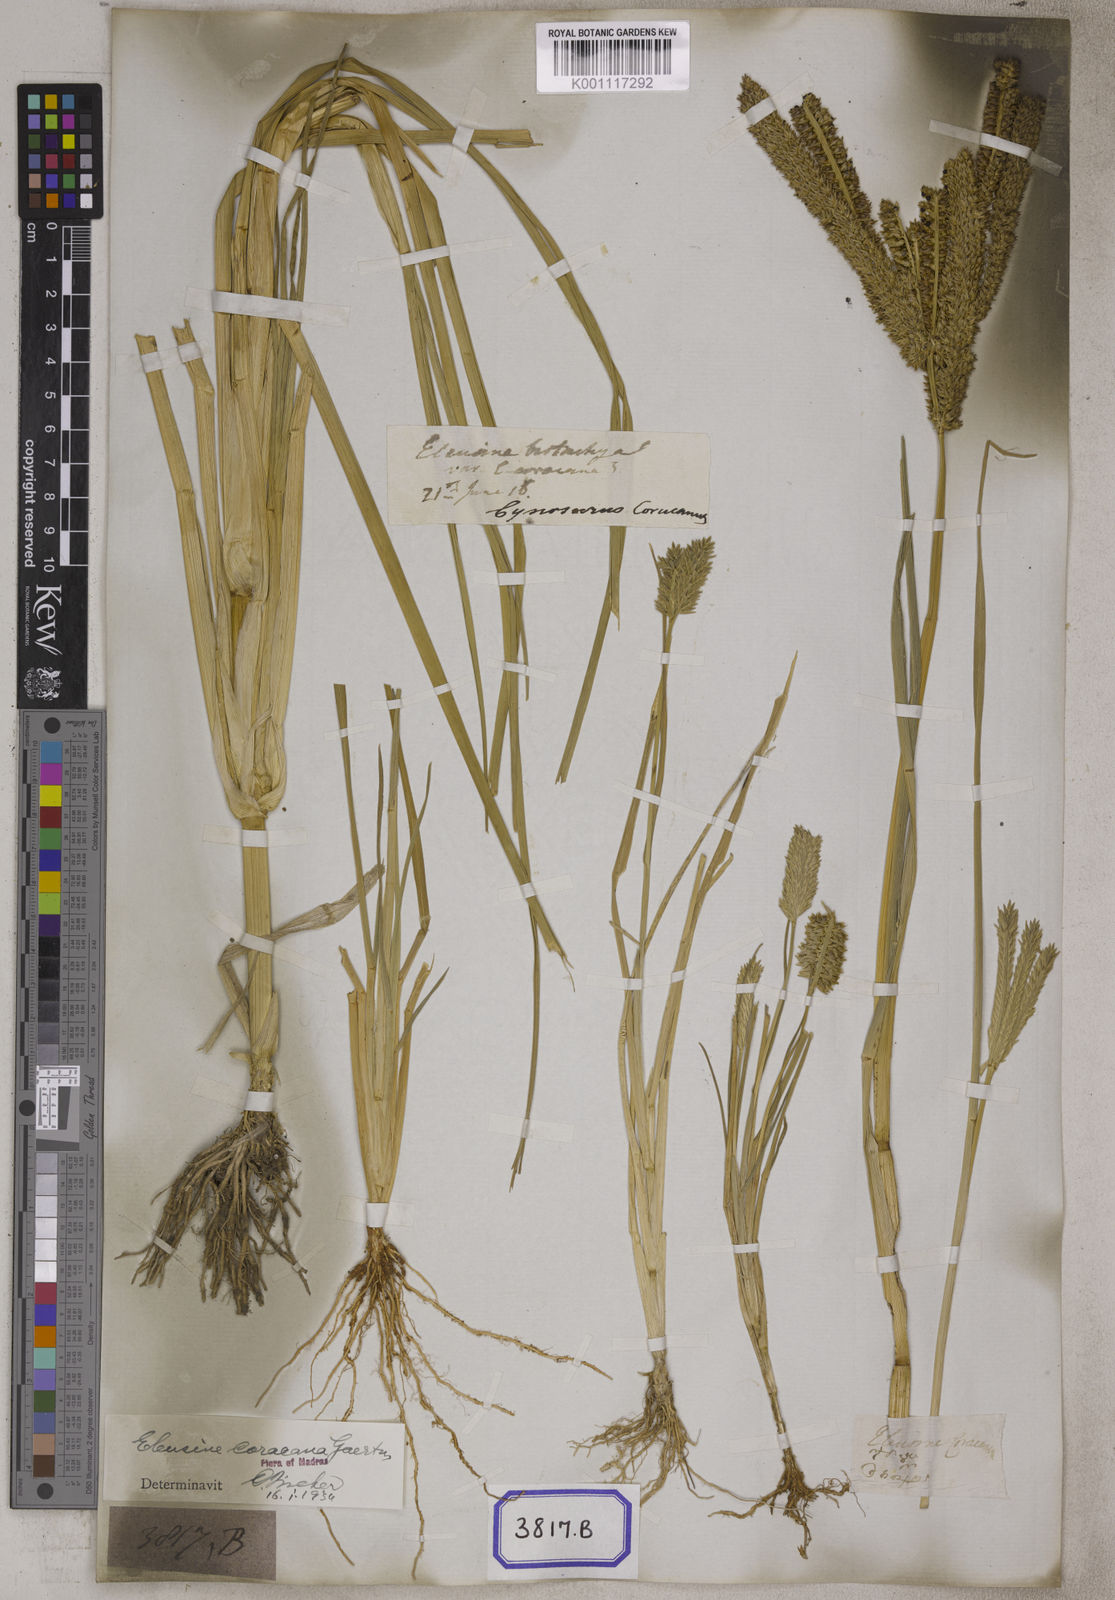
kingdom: Plantae
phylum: Tracheophyta
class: Liliopsida
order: Poales
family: Poaceae
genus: Eleusine
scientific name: Eleusine
